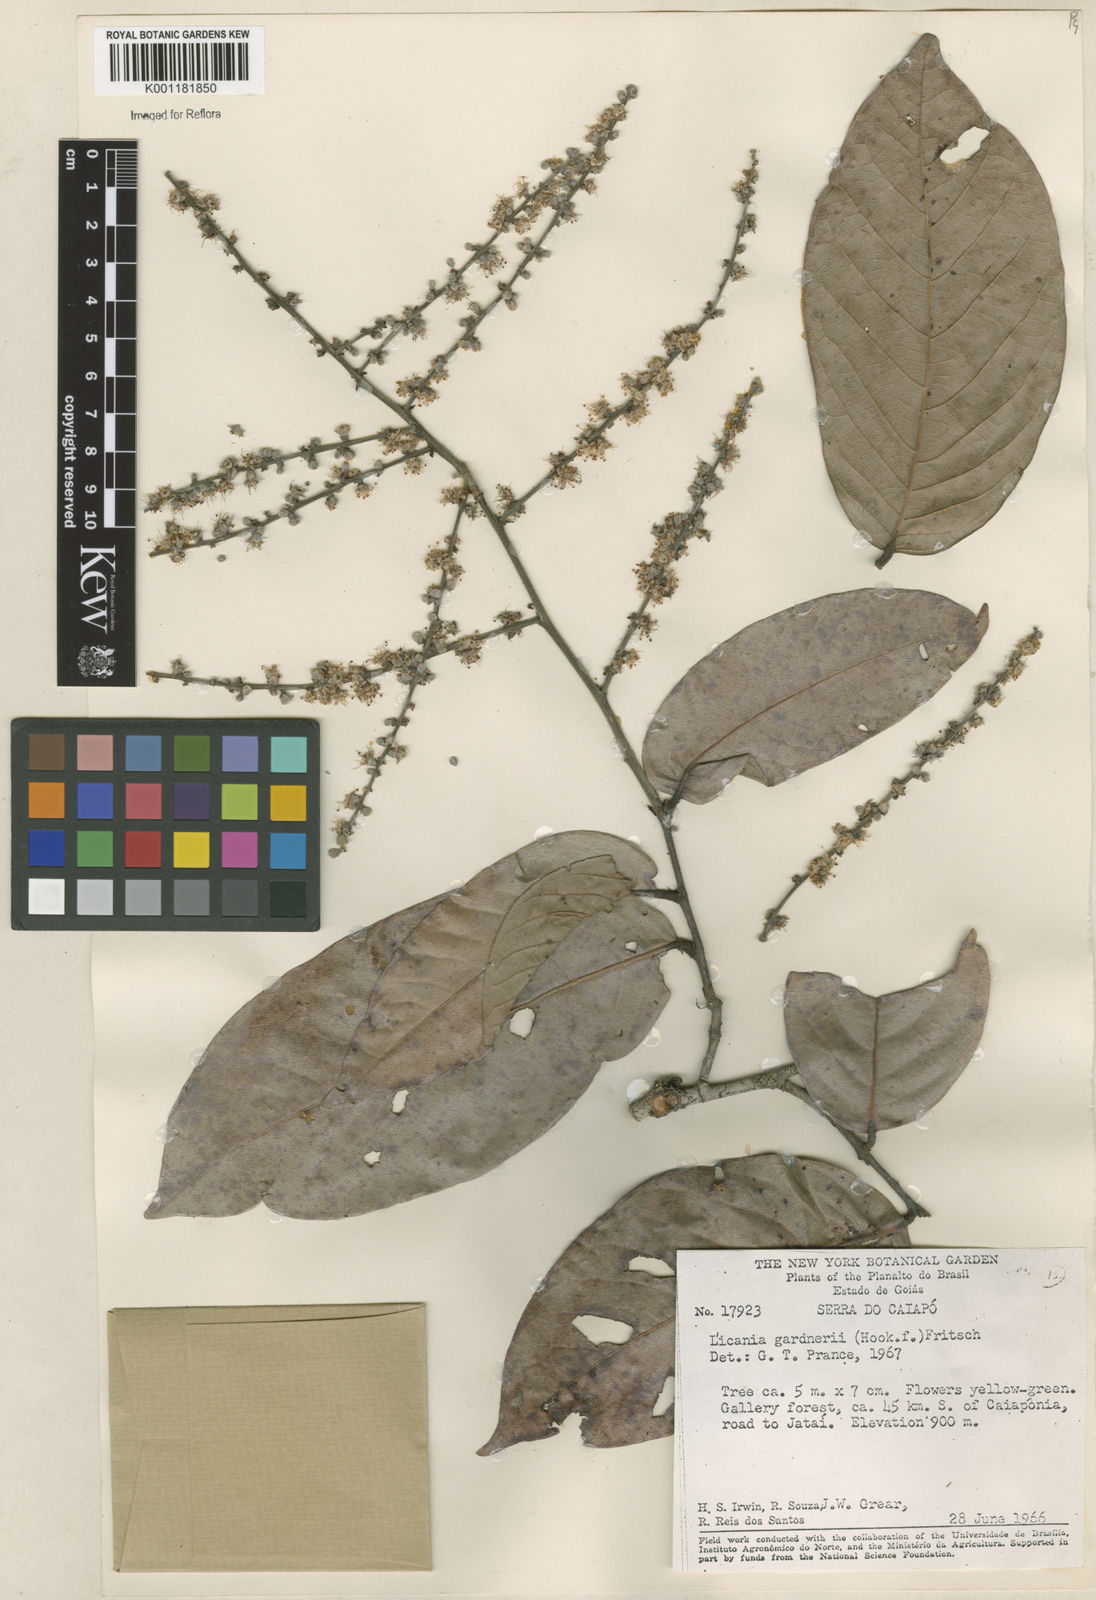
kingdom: Plantae
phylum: Tracheophyta
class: Magnoliopsida
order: Malpighiales
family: Chrysobalanaceae
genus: Leptobalanus
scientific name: Leptobalanus gardneri
